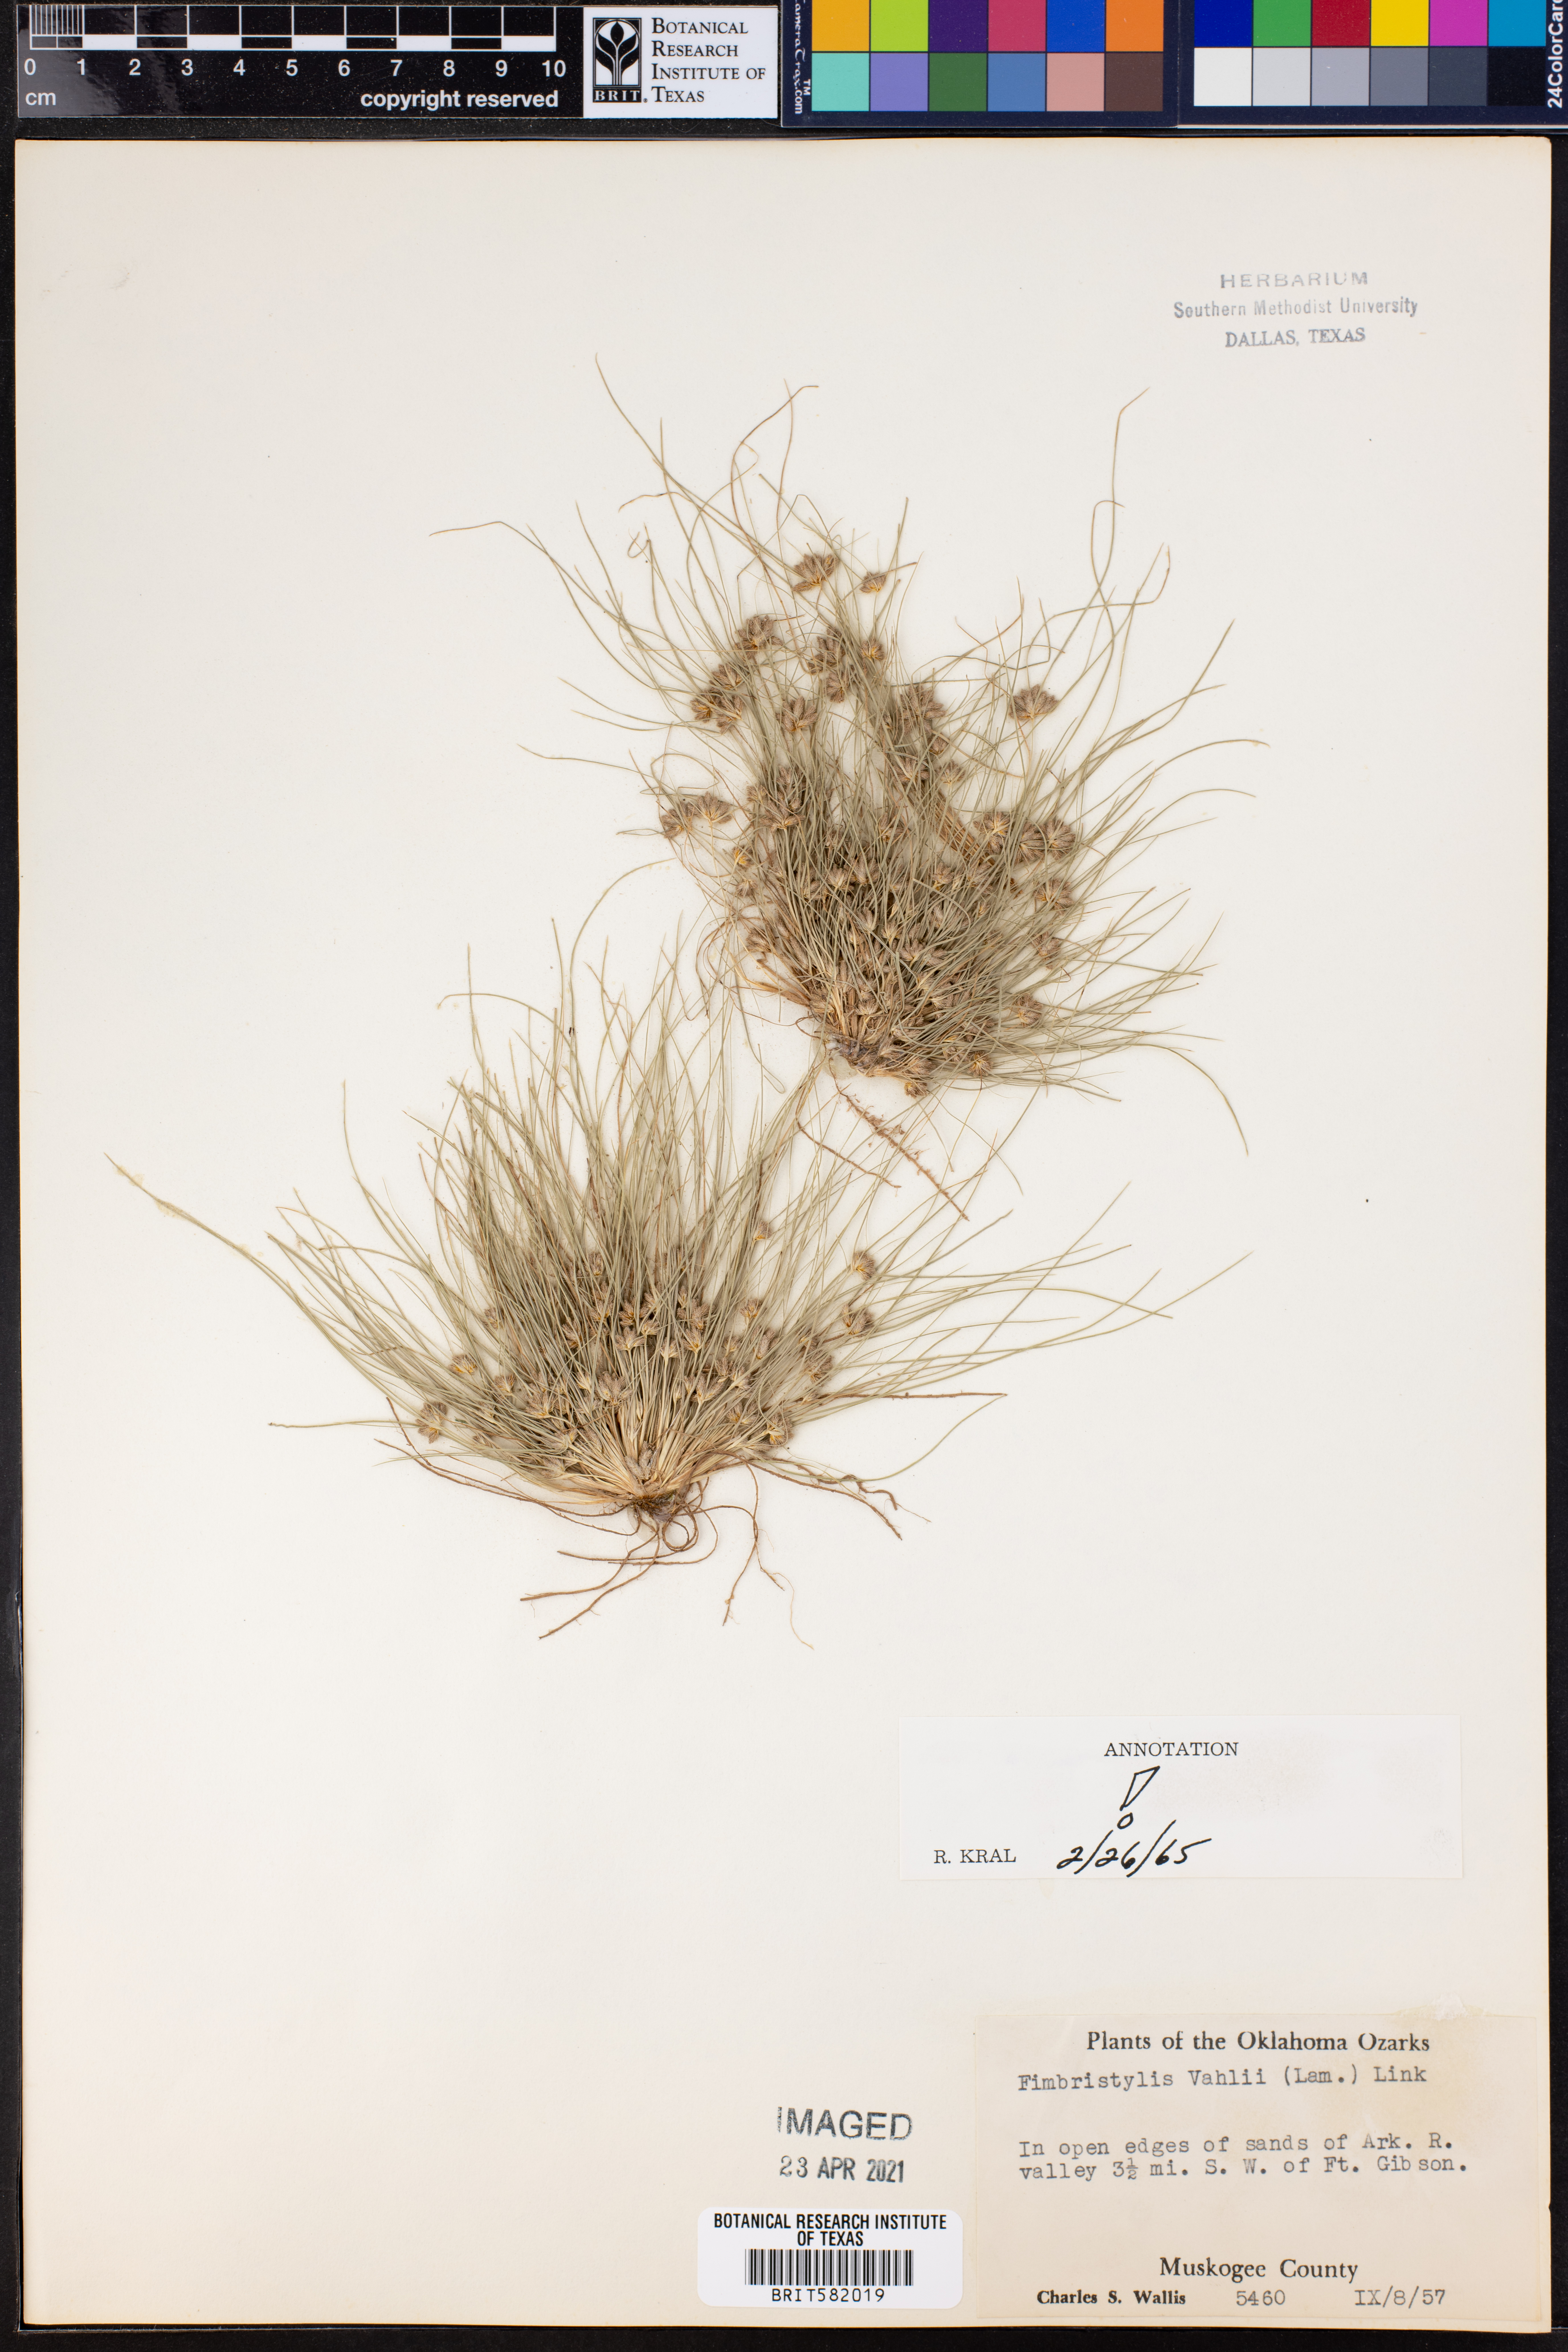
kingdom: Plantae
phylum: Tracheophyta
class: Liliopsida
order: Poales
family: Cyperaceae
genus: Fimbristylis
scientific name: Fimbristylis vahlii
